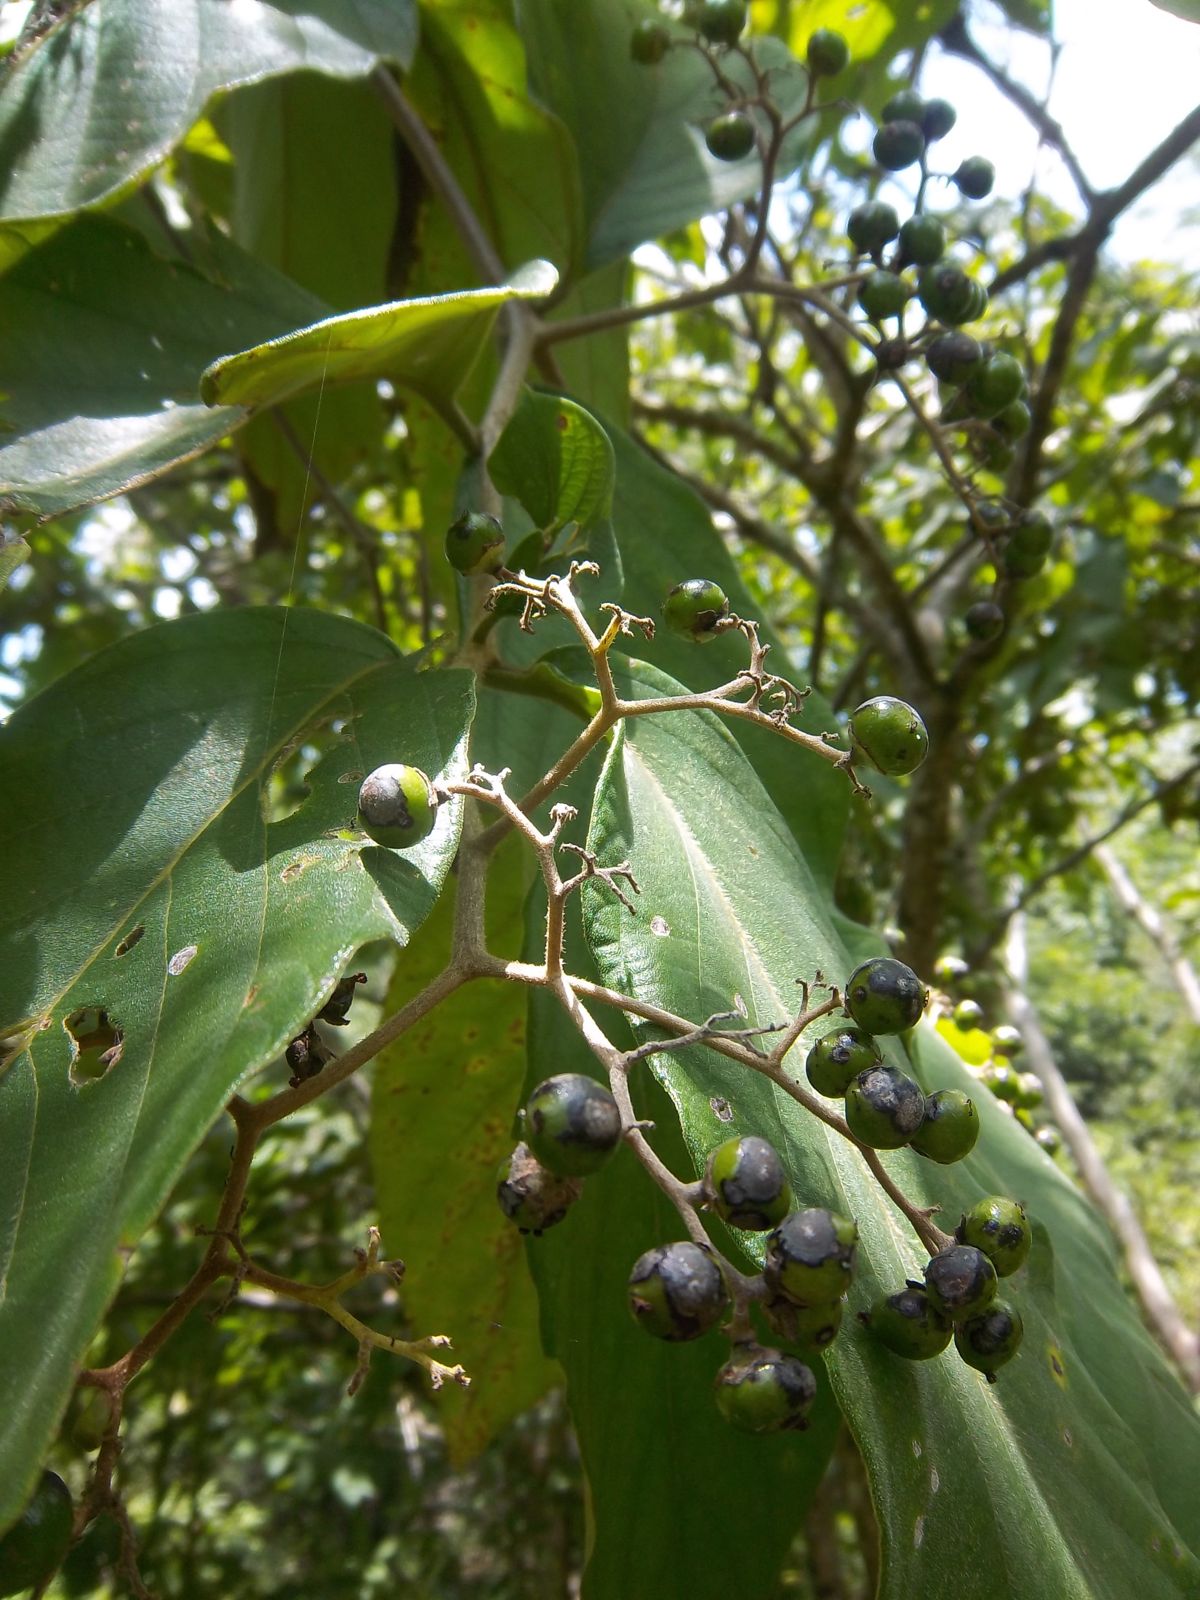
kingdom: Plantae
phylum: Tracheophyta
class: Magnoliopsida
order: Boraginales
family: Cordiaceae
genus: Cordia
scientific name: Cordia panamensis
